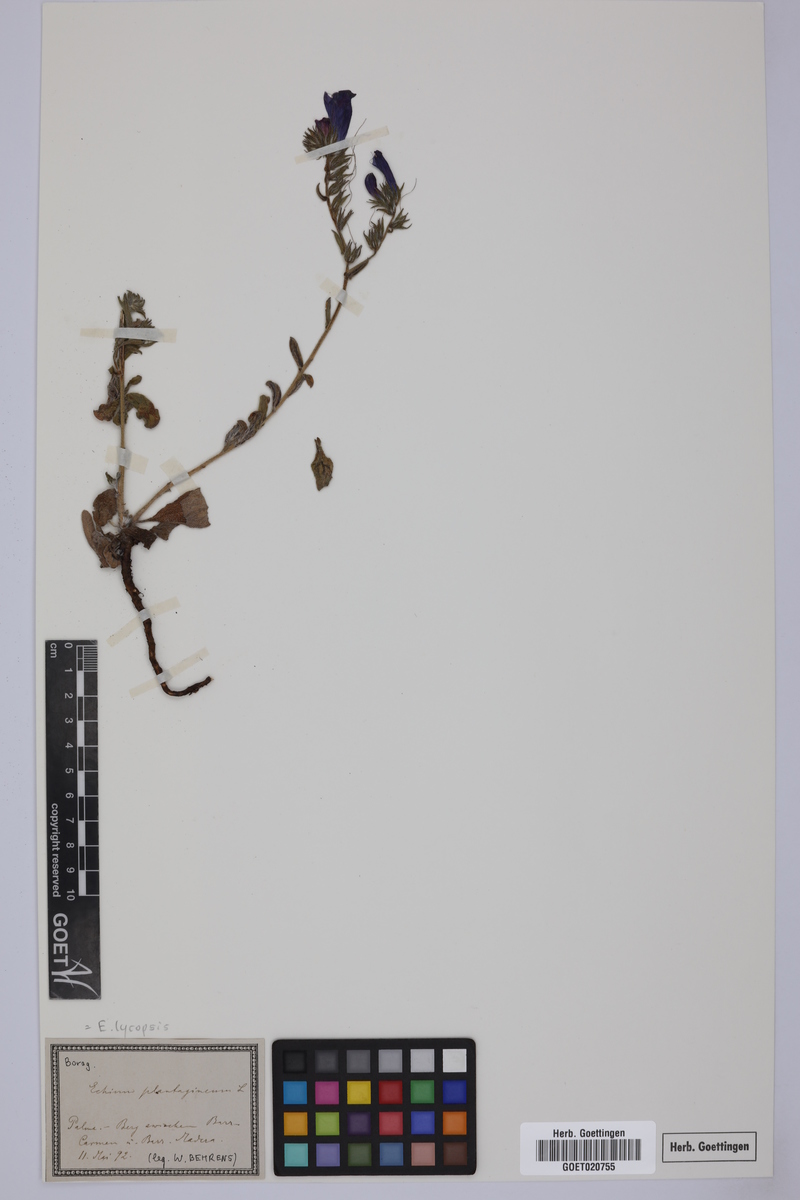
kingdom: Plantae
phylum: Tracheophyta
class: Magnoliopsida
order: Boraginales
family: Boraginaceae
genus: Echium
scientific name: Echium plantagineum
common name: Purple viper's-bugloss
